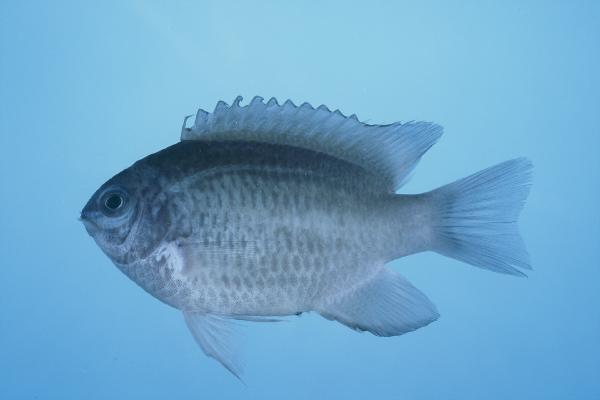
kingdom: Animalia
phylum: Chordata
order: Perciformes
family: Pomacentridae
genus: Chrysiptera
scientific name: Chrysiptera glauca
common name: Grey demoiselle
